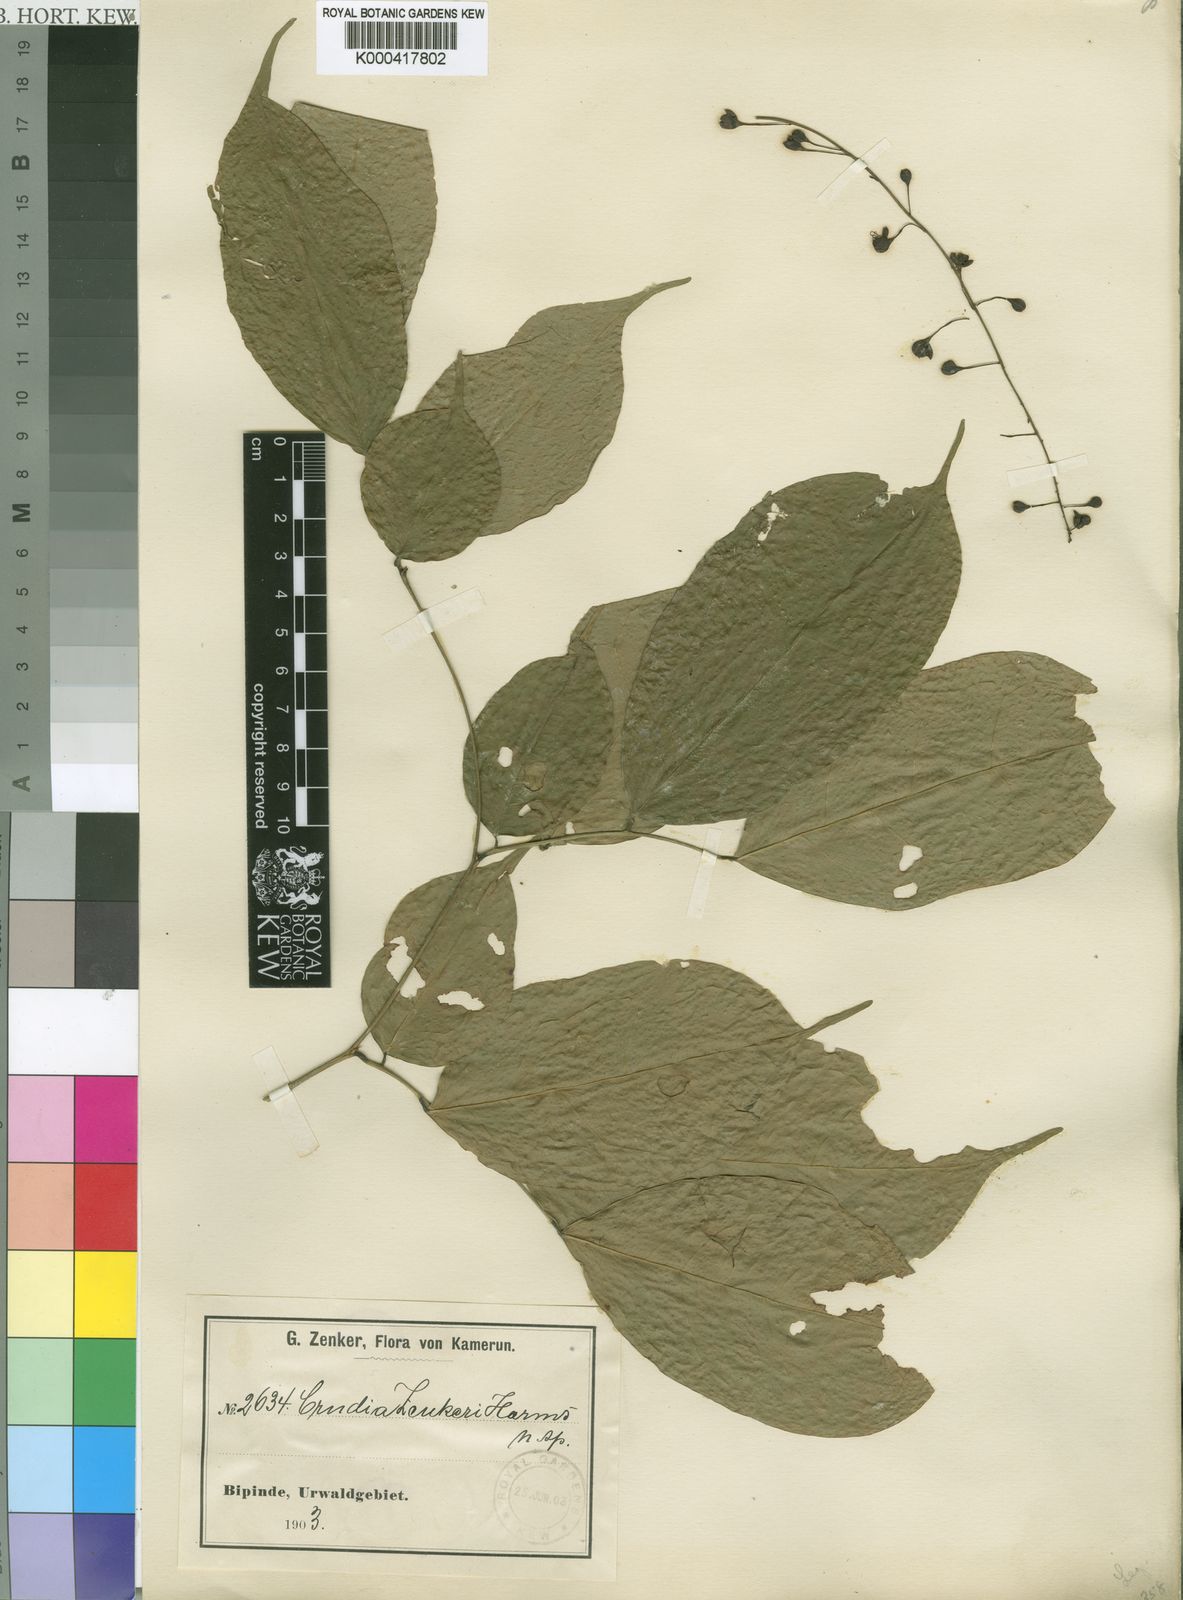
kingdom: Plantae
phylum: Tracheophyta
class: Magnoliopsida
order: Fabales
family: Fabaceae
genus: Crudia
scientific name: Crudia zenkeri
